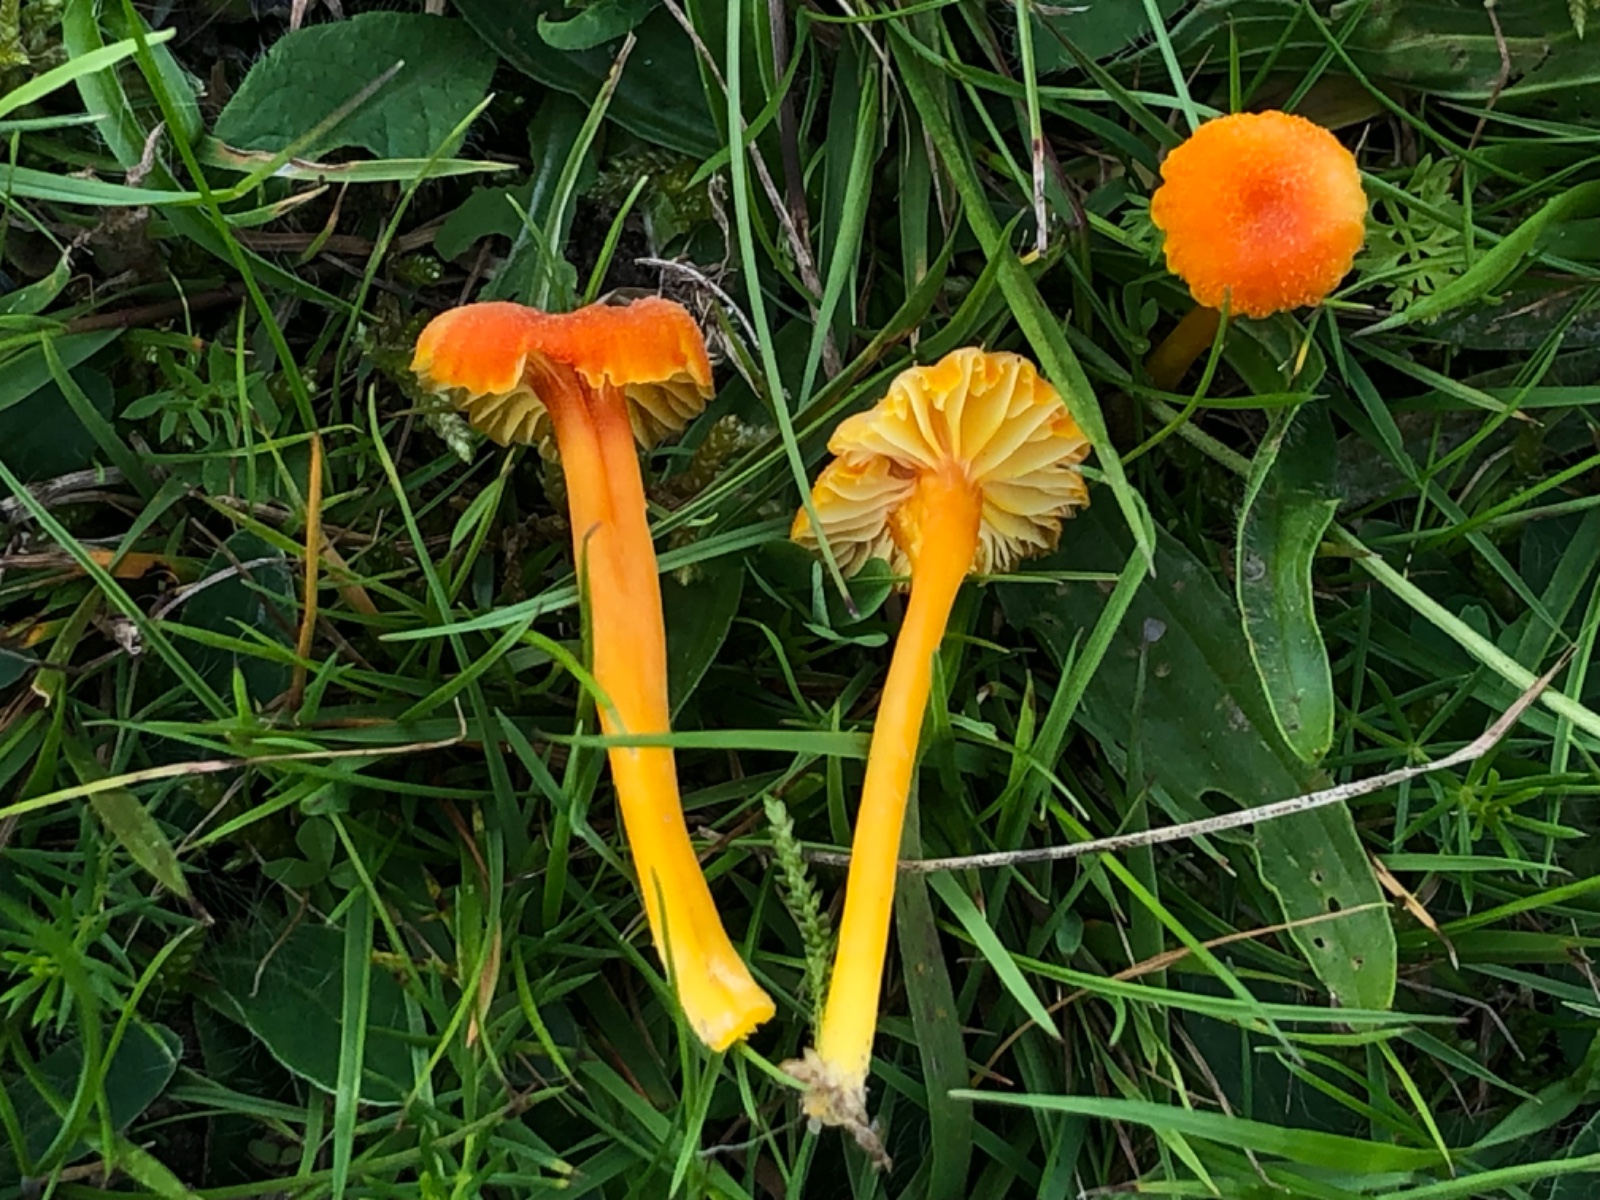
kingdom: Fungi
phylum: Basidiomycota
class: Agaricomycetes
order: Agaricales
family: Hygrophoraceae
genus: Hygrocybe
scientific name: Hygrocybe cantharellus
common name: kantarel-vokshat
